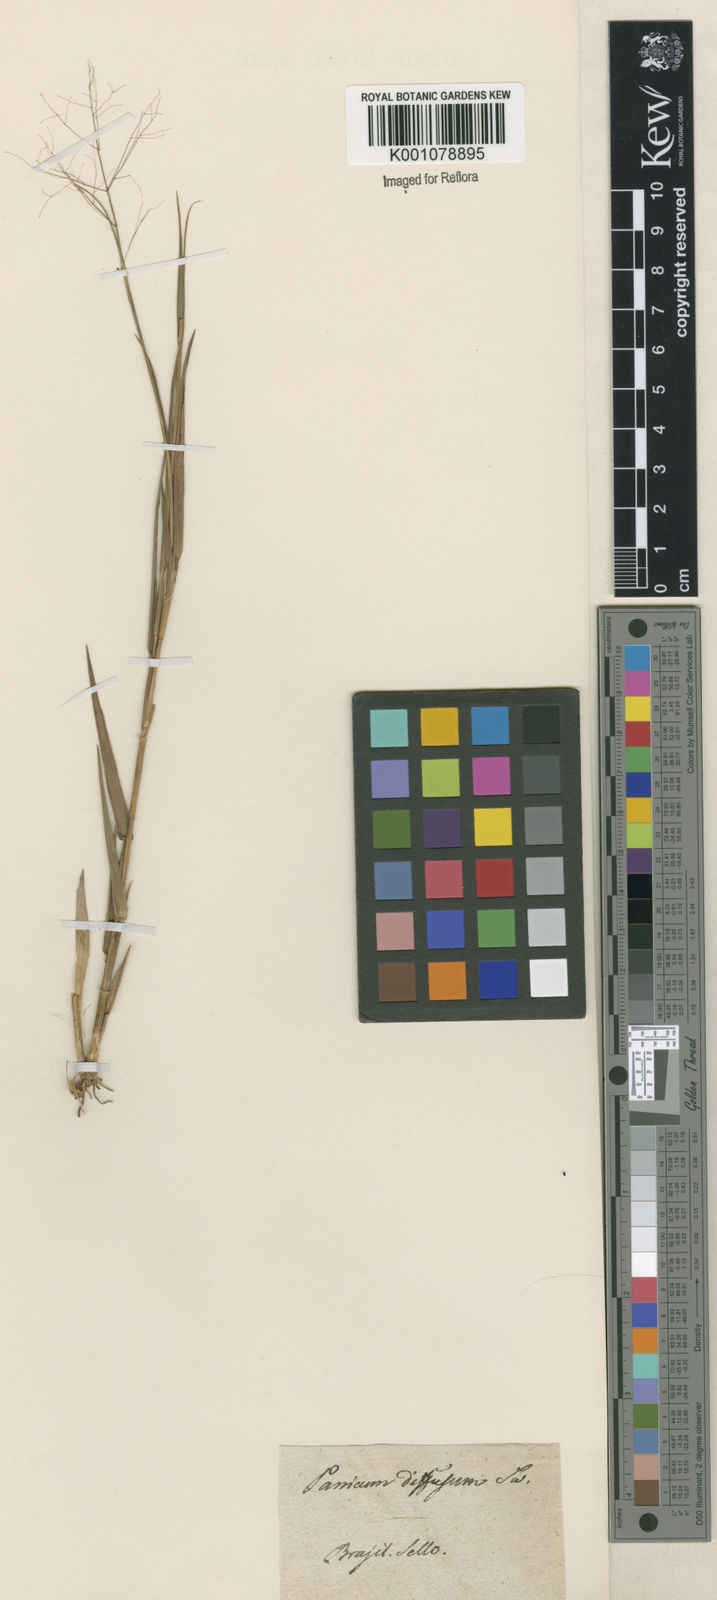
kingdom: Plantae
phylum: Tracheophyta
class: Liliopsida
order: Poales
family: Poaceae
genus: Trichanthecium
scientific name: Trichanthecium cyanescens
